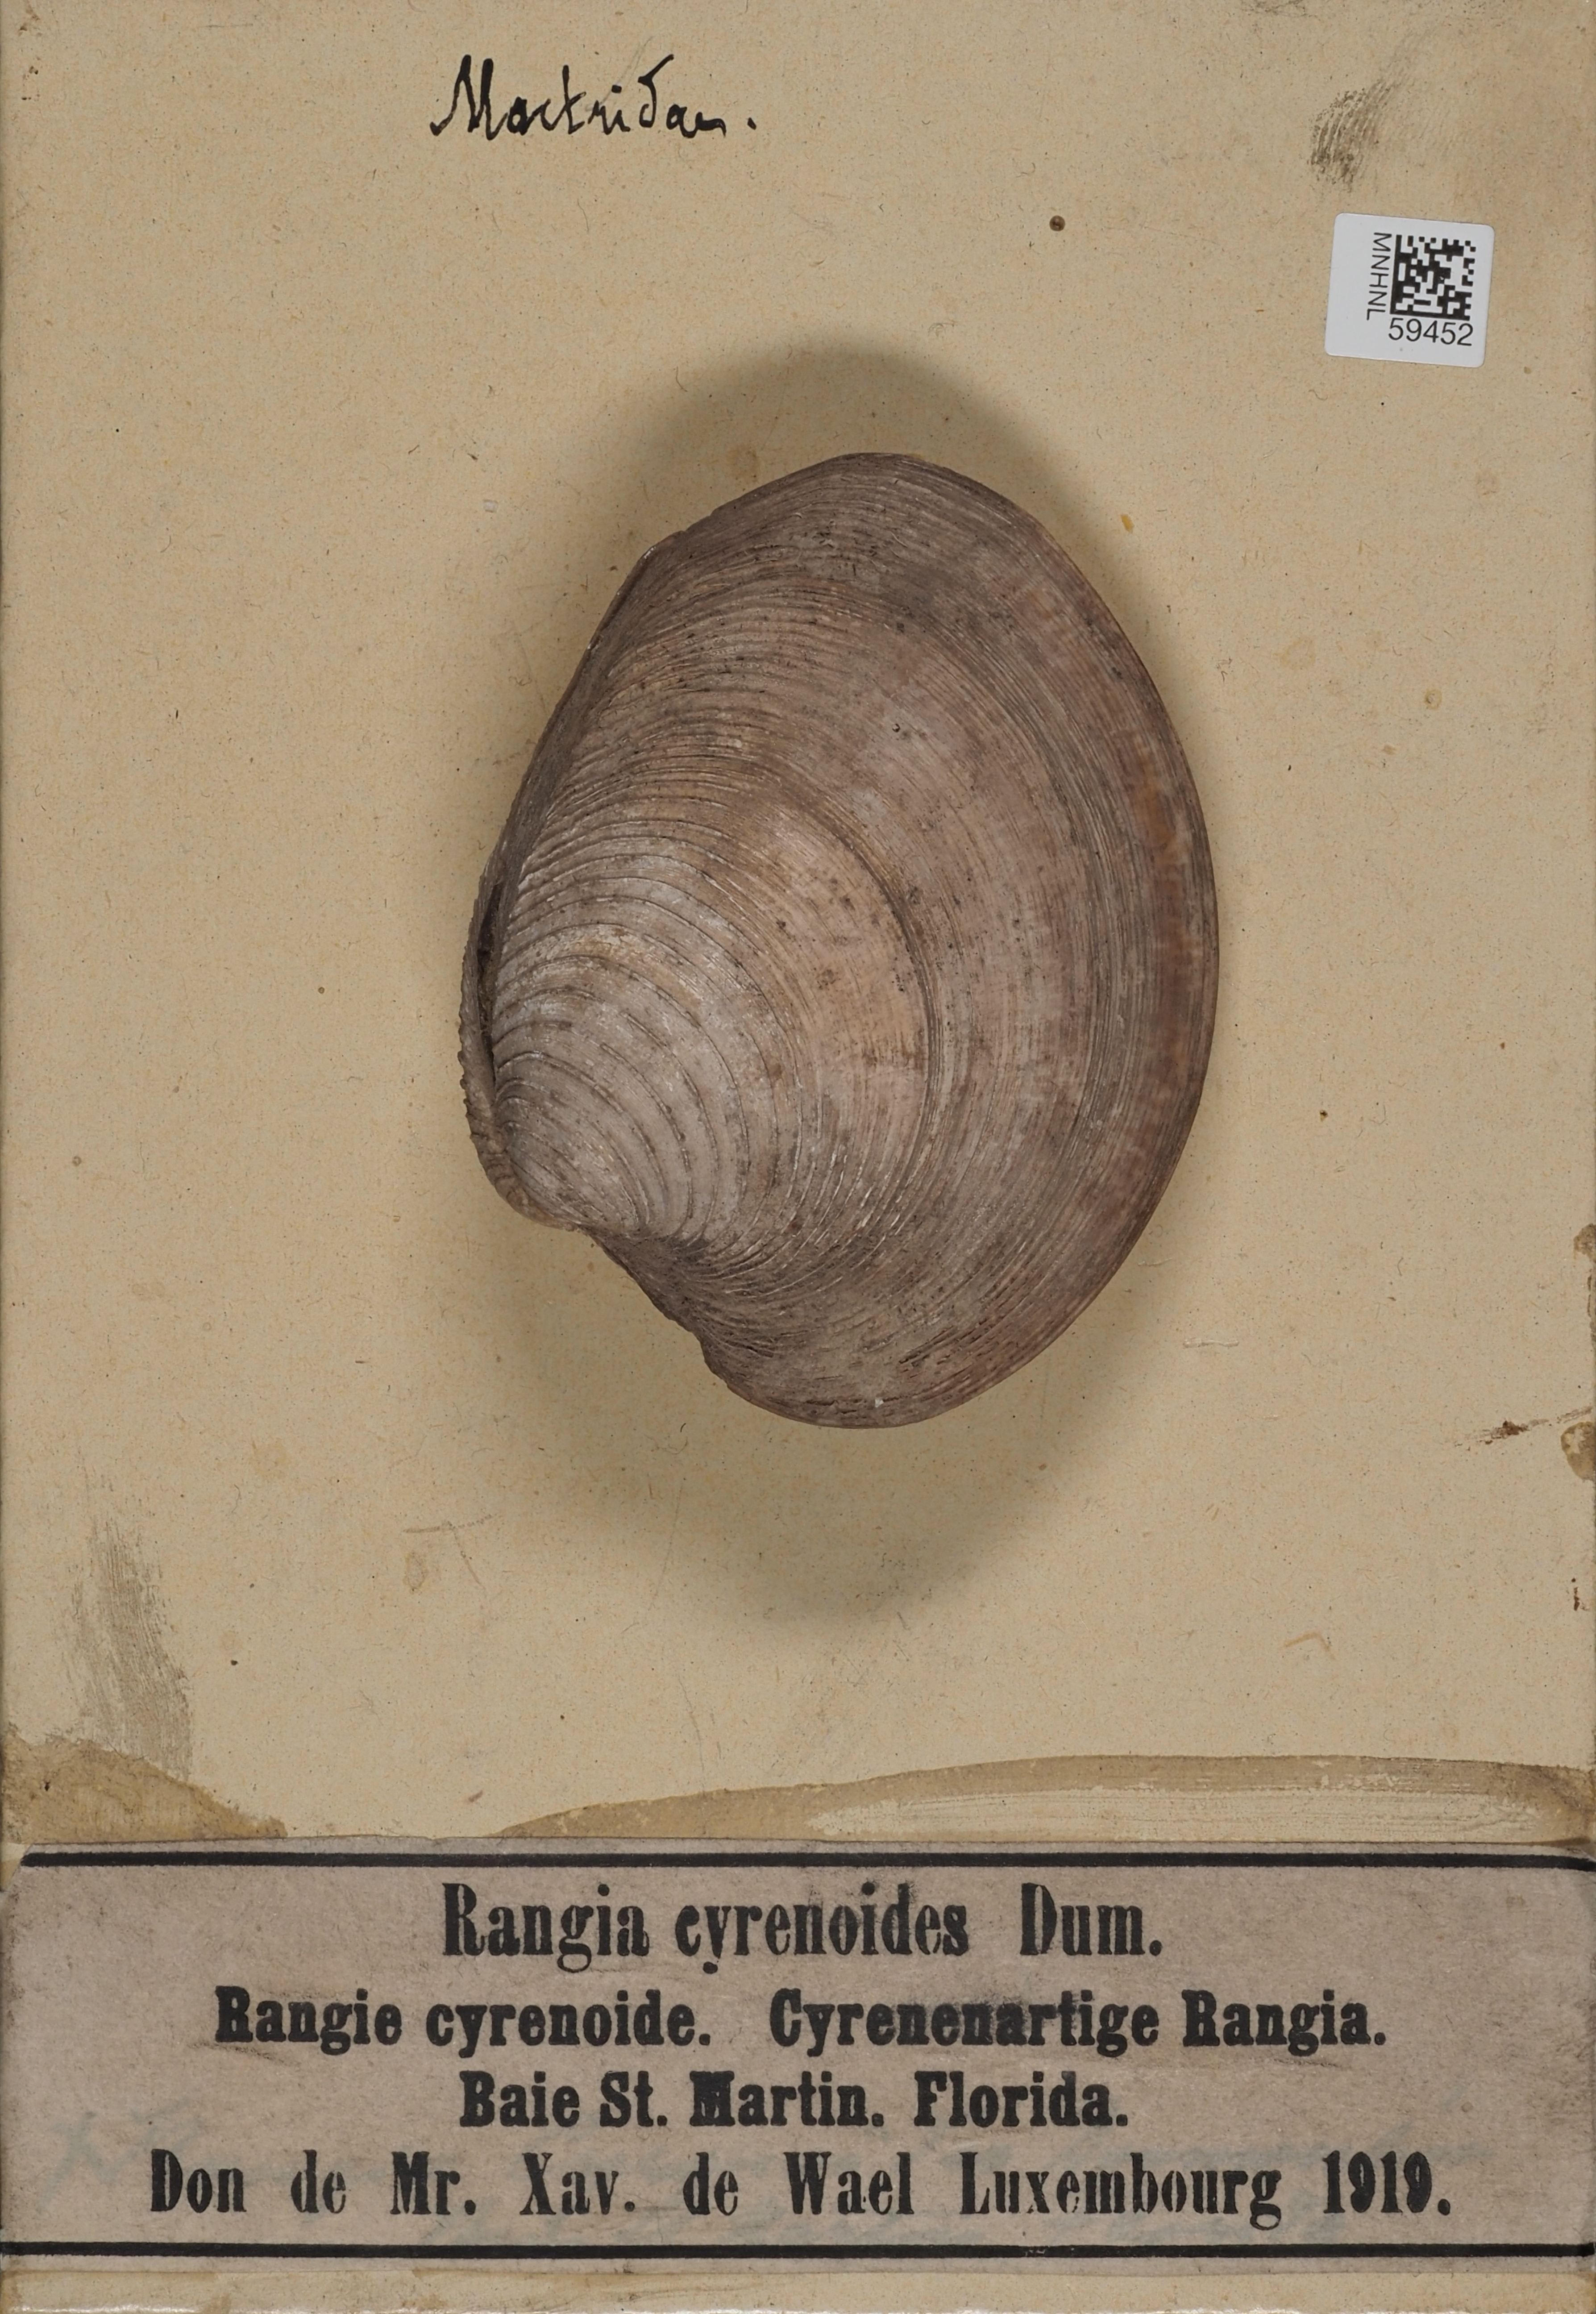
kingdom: Animalia
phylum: Mollusca
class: Bivalvia
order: Venerida
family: Mactridae
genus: Rangia
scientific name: Rangia cuneata
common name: Atlantic rangia
